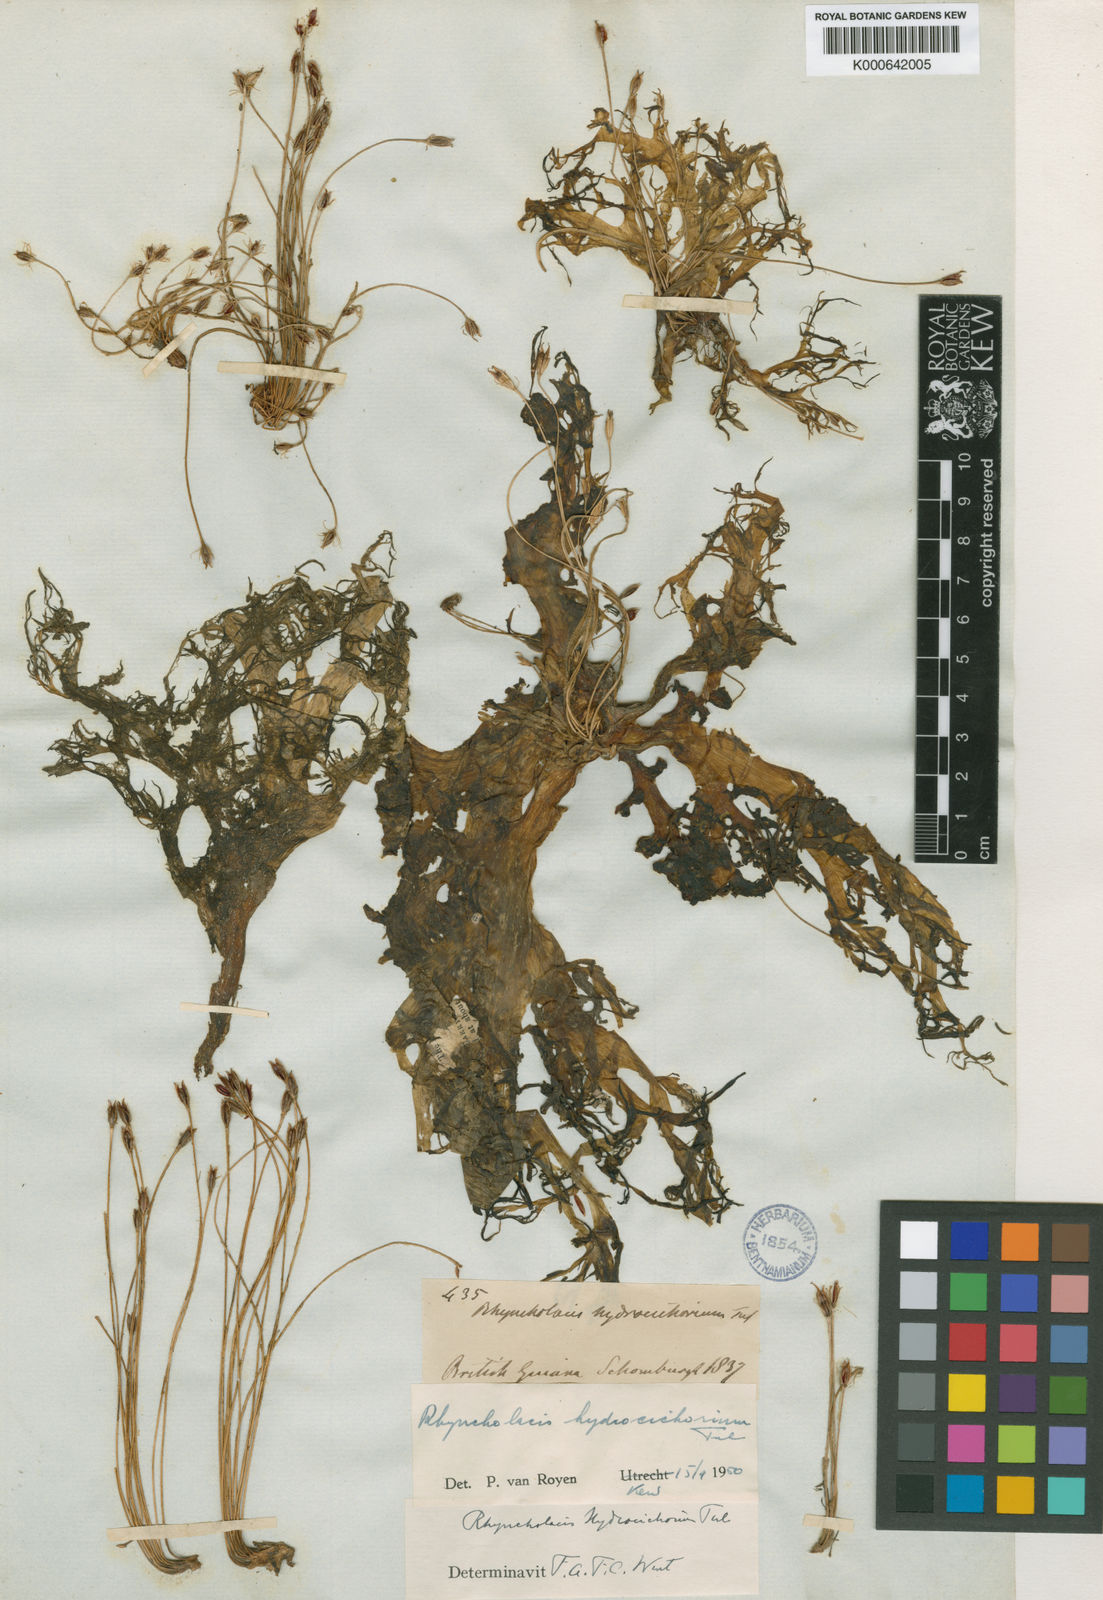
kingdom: Plantae
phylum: Tracheophyta
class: Magnoliopsida
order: Malpighiales
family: Podostemaceae
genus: Rhyncholacis
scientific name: Rhyncholacis hydrocichorium
